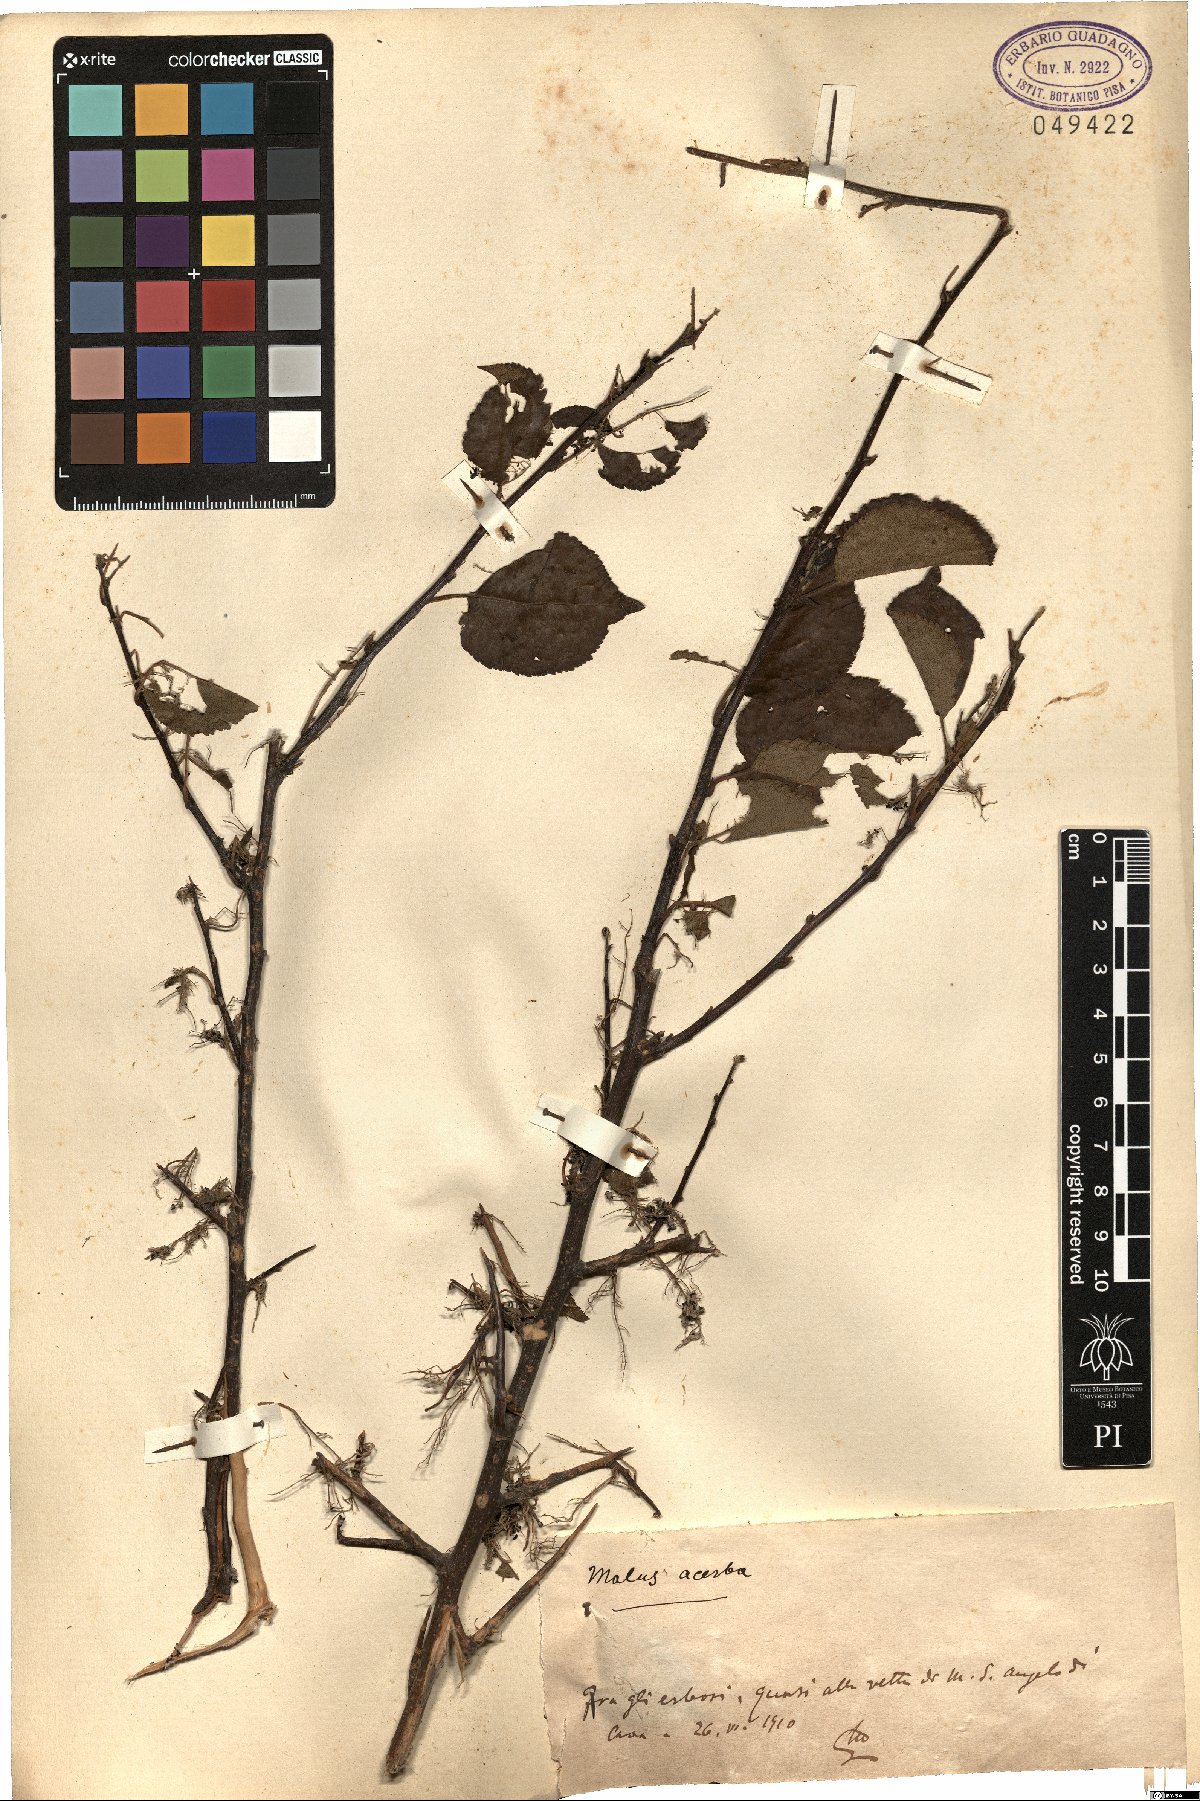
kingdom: Plantae
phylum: Tracheophyta
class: Magnoliopsida
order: Rosales
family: Rosaceae
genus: Malus
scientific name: Malus sylvestris
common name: Crab apple
